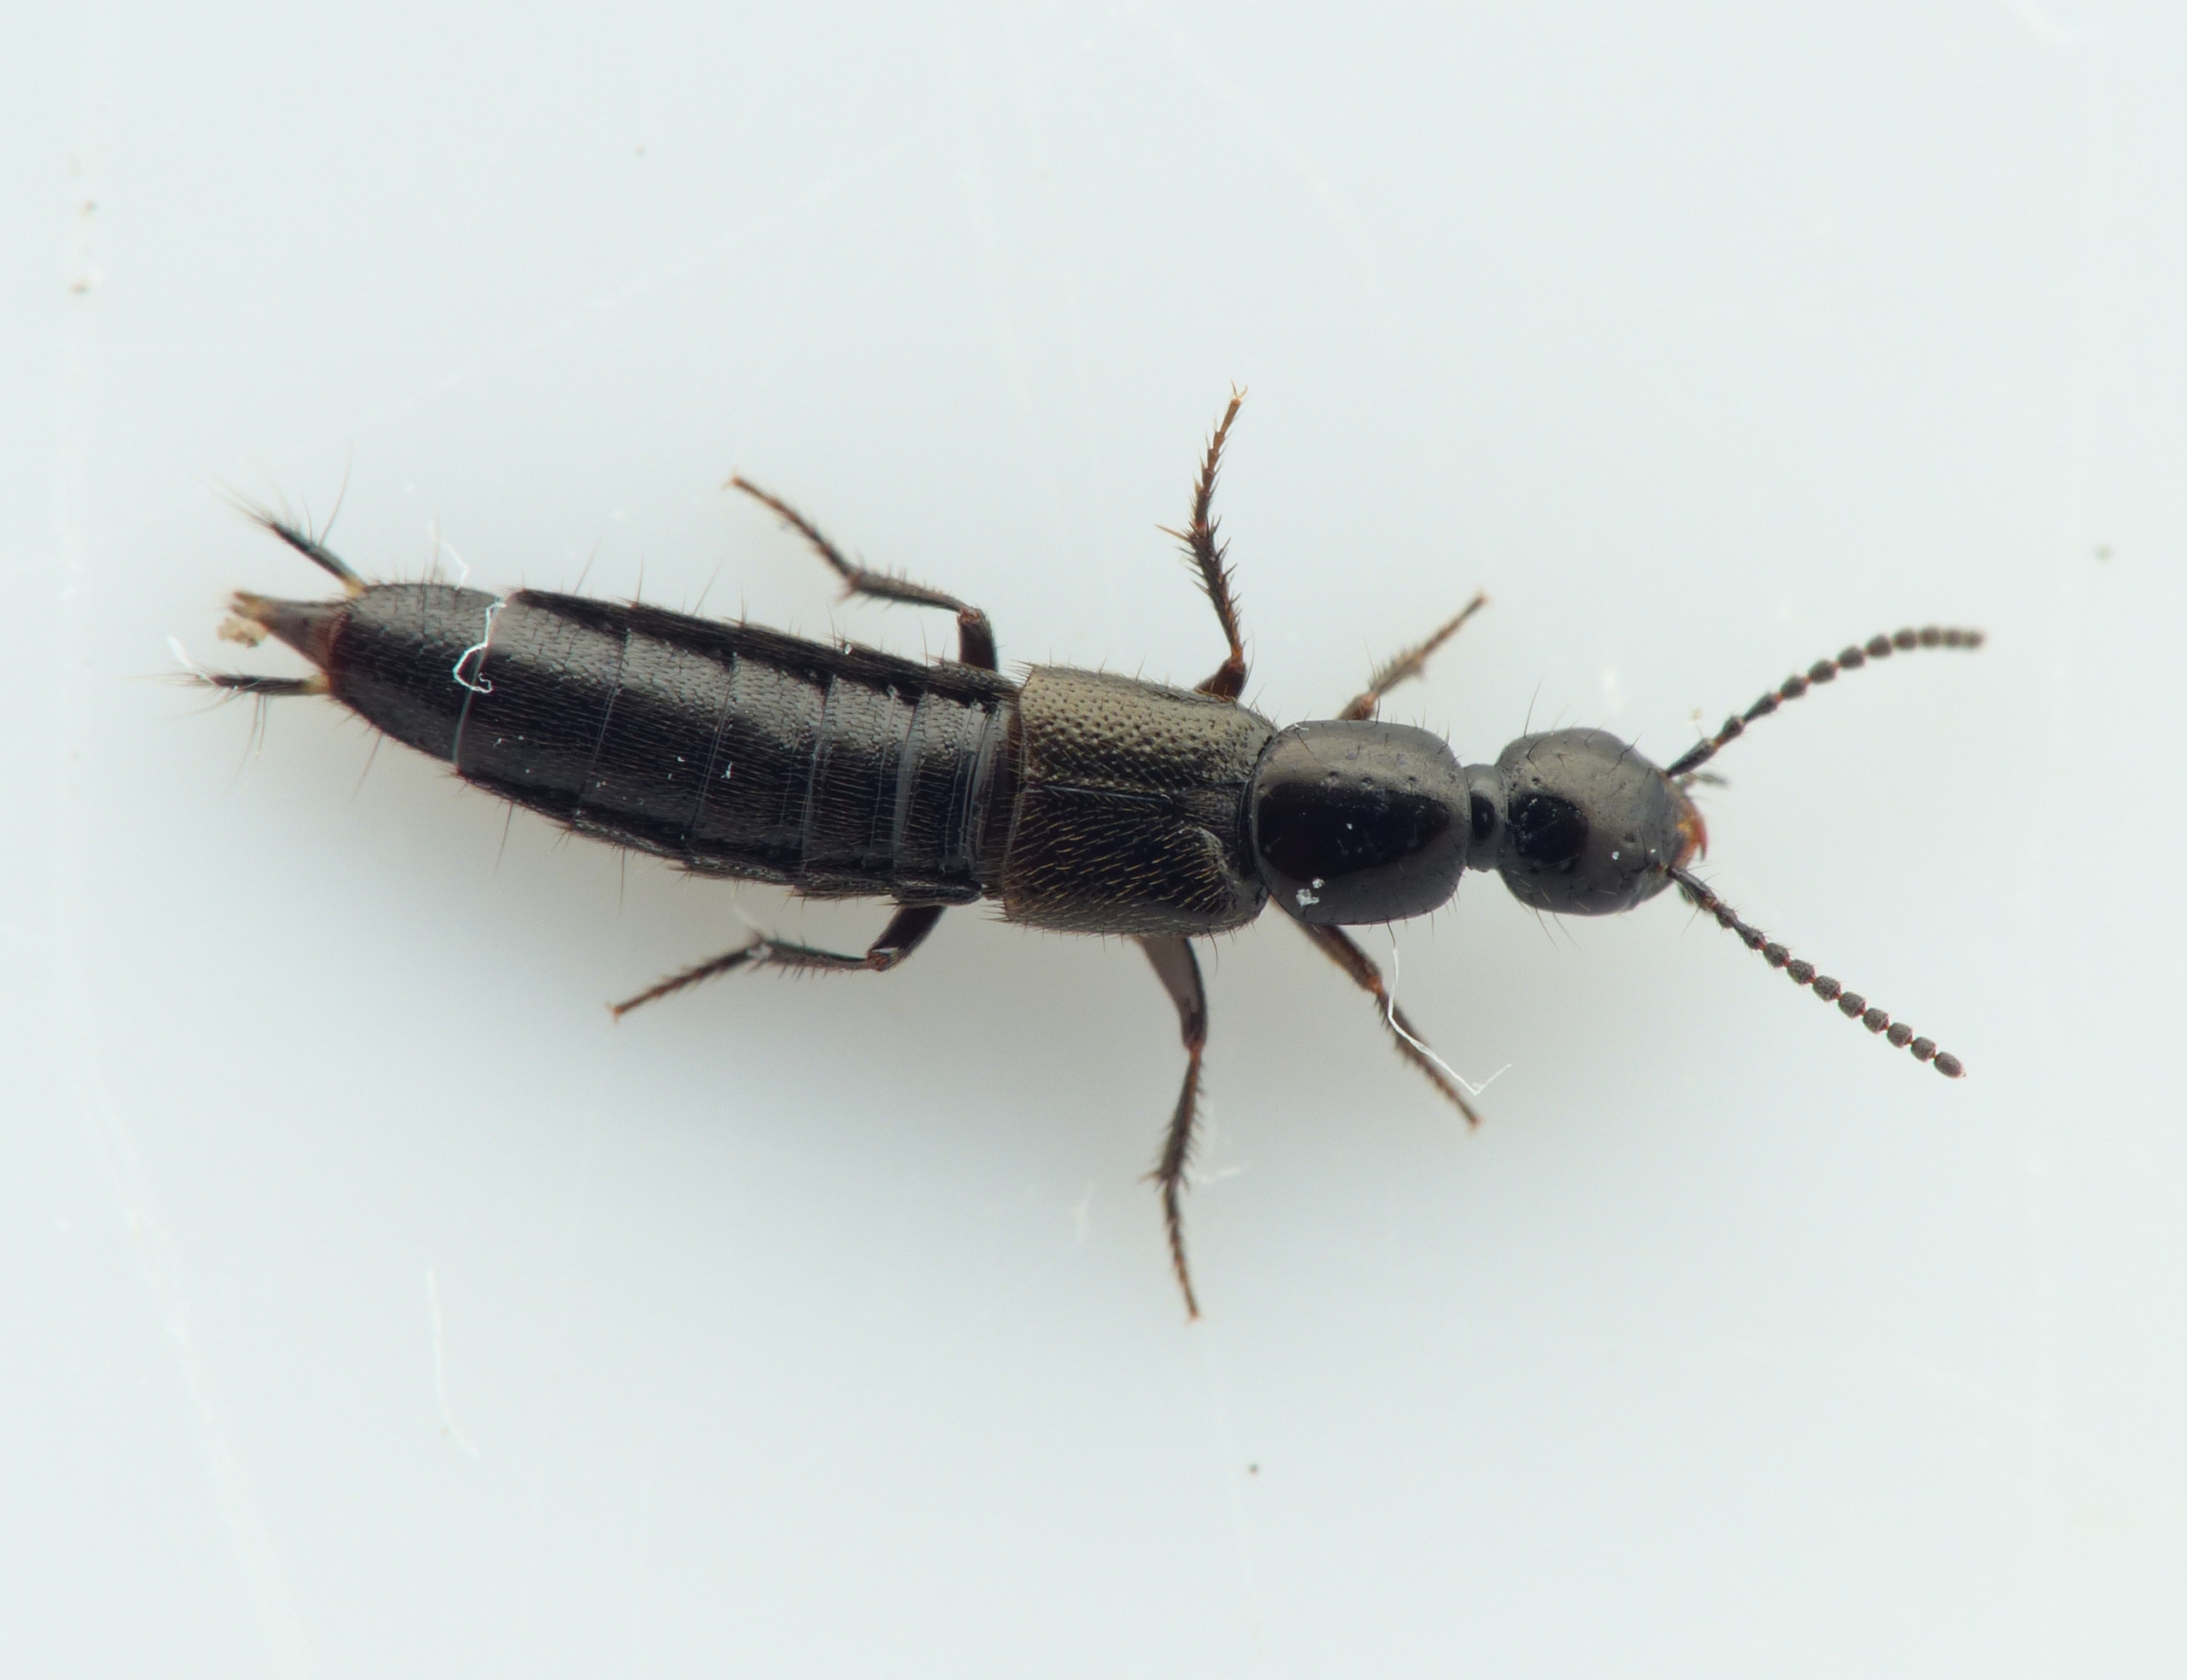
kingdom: Animalia
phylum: Arthropoda
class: Insecta
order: Coleoptera
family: Staphylinidae
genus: Bisnius
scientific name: Bisnius sordidus
